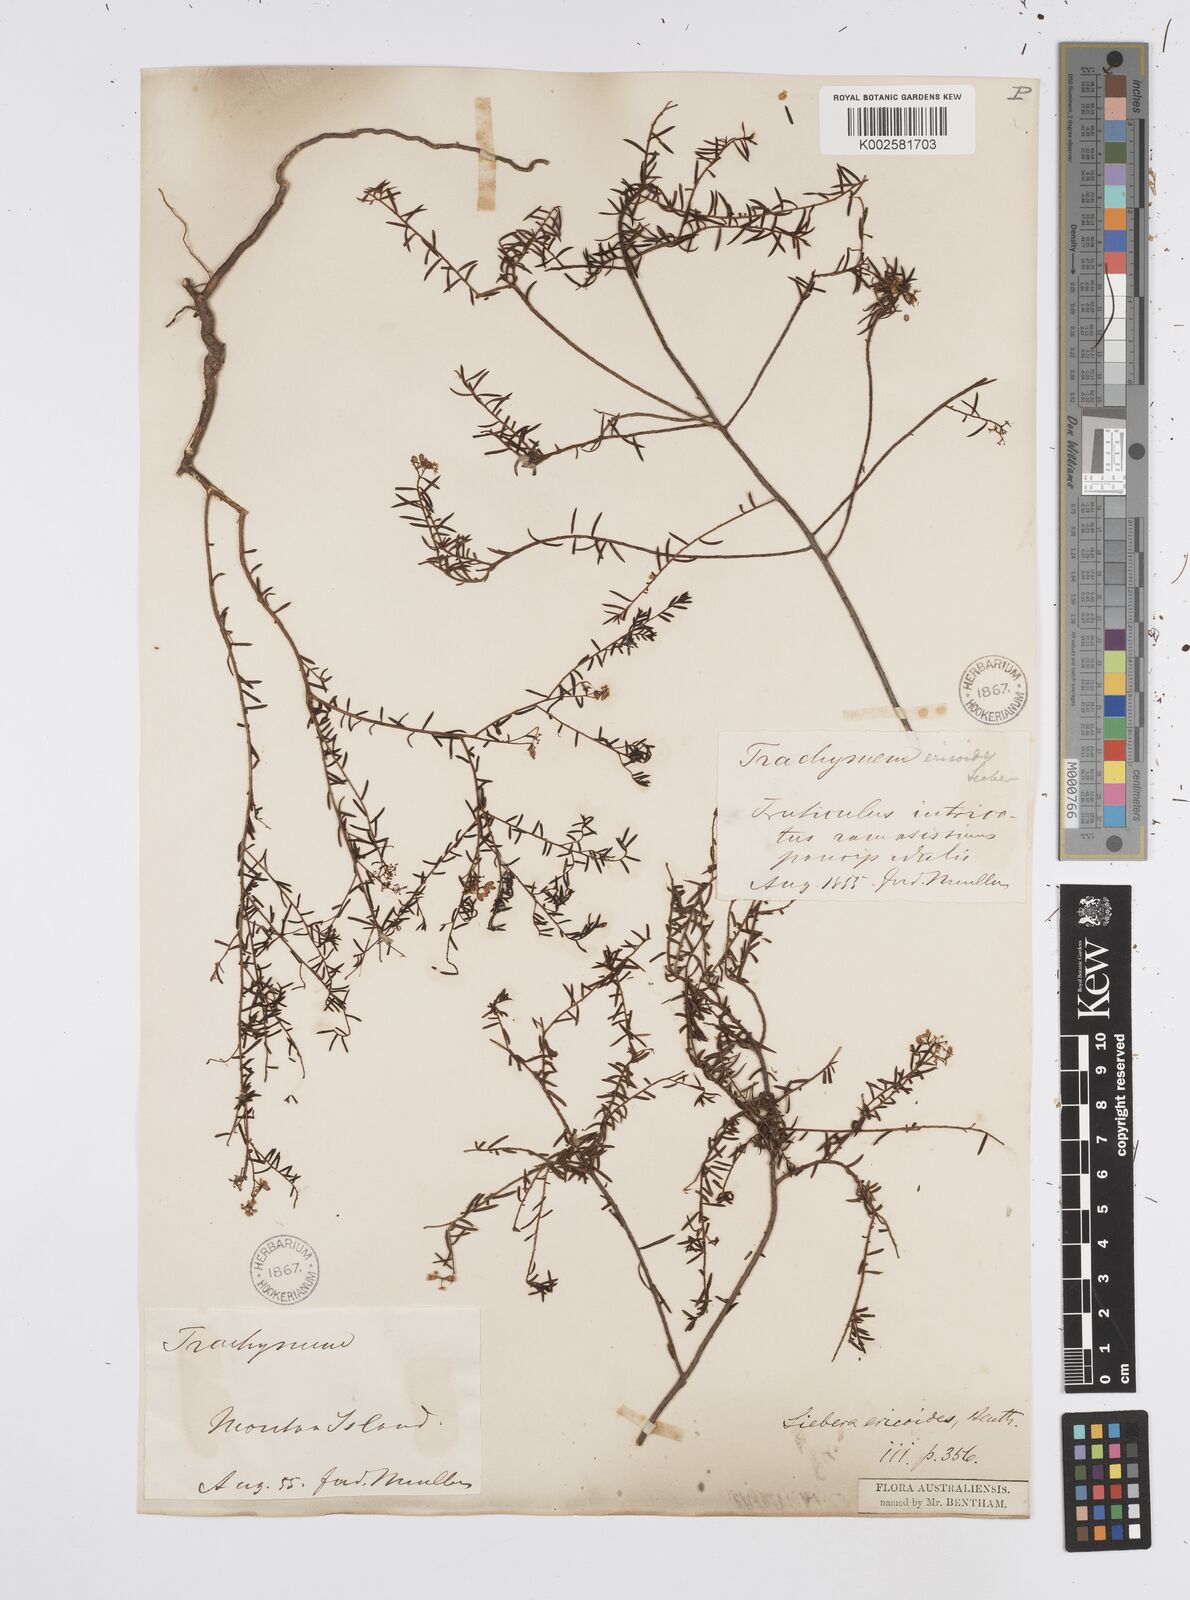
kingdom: Plantae
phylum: Tracheophyta
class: Magnoliopsida
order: Apiales
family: Apiaceae
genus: Platysace
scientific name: Platysace ericoides
